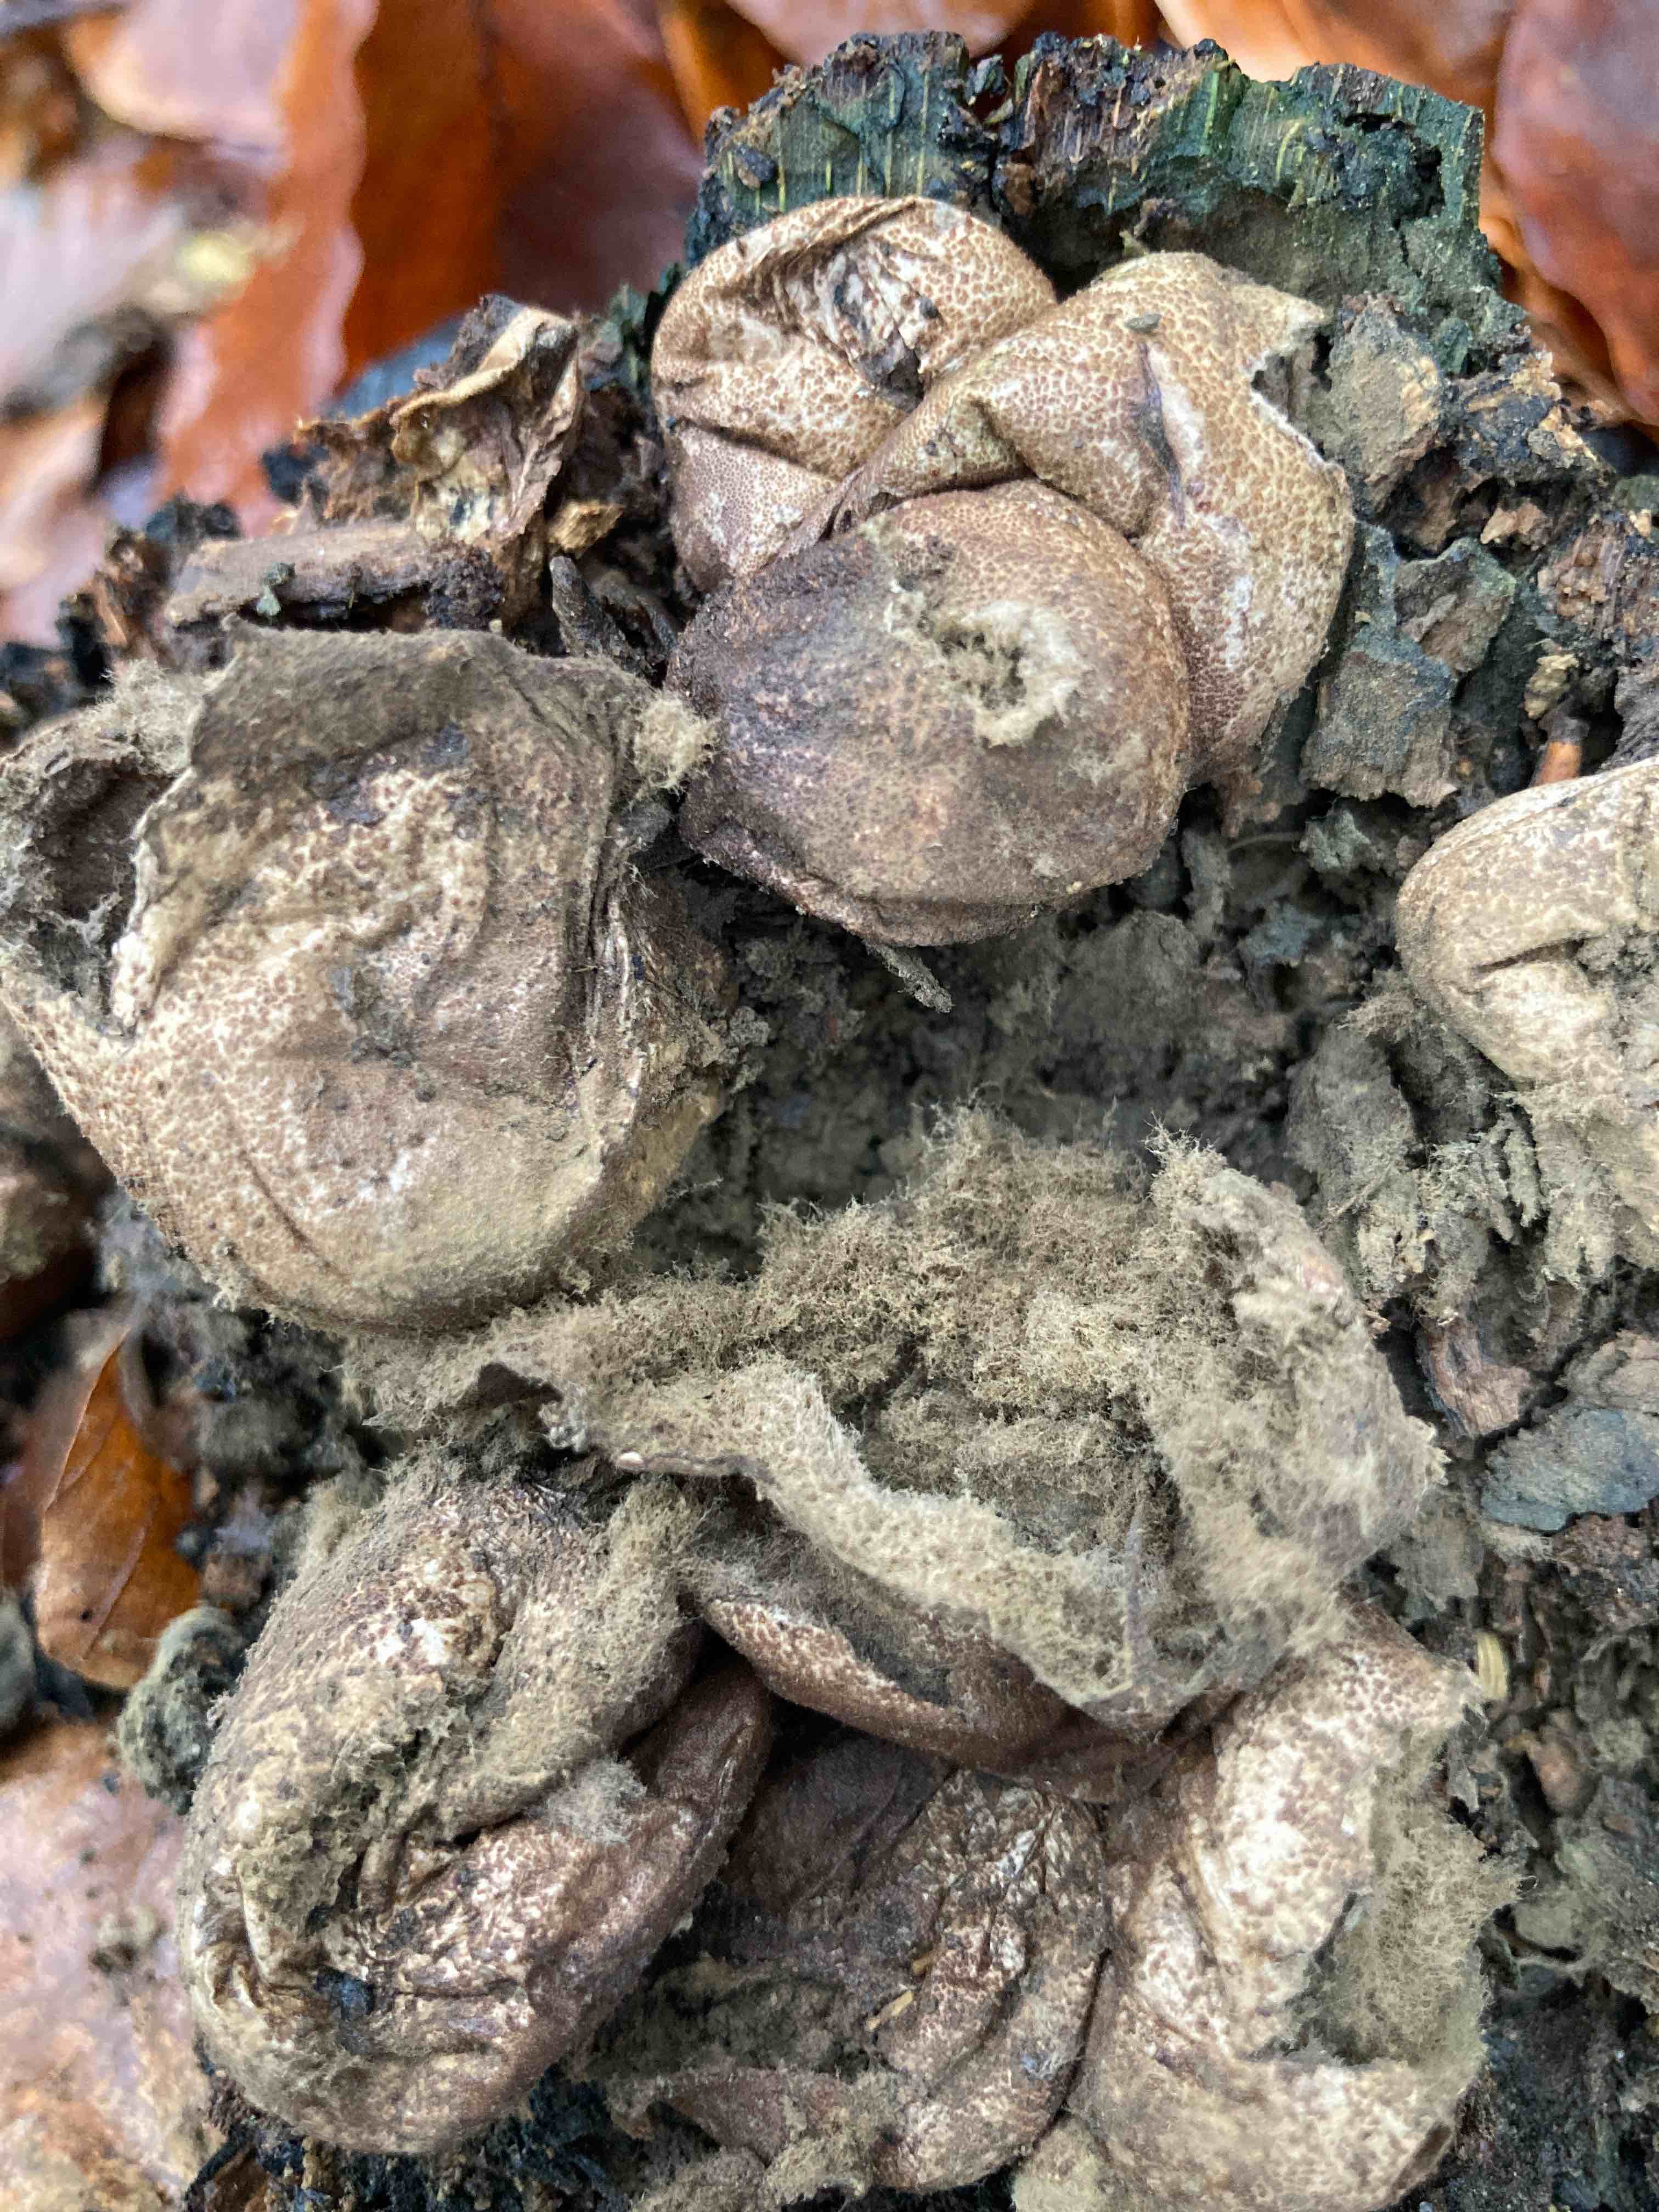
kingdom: Fungi
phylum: Basidiomycota
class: Agaricomycetes
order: Agaricales
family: Lycoperdaceae
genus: Apioperdon
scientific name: Apioperdon pyriforme
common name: pære-støvbold
